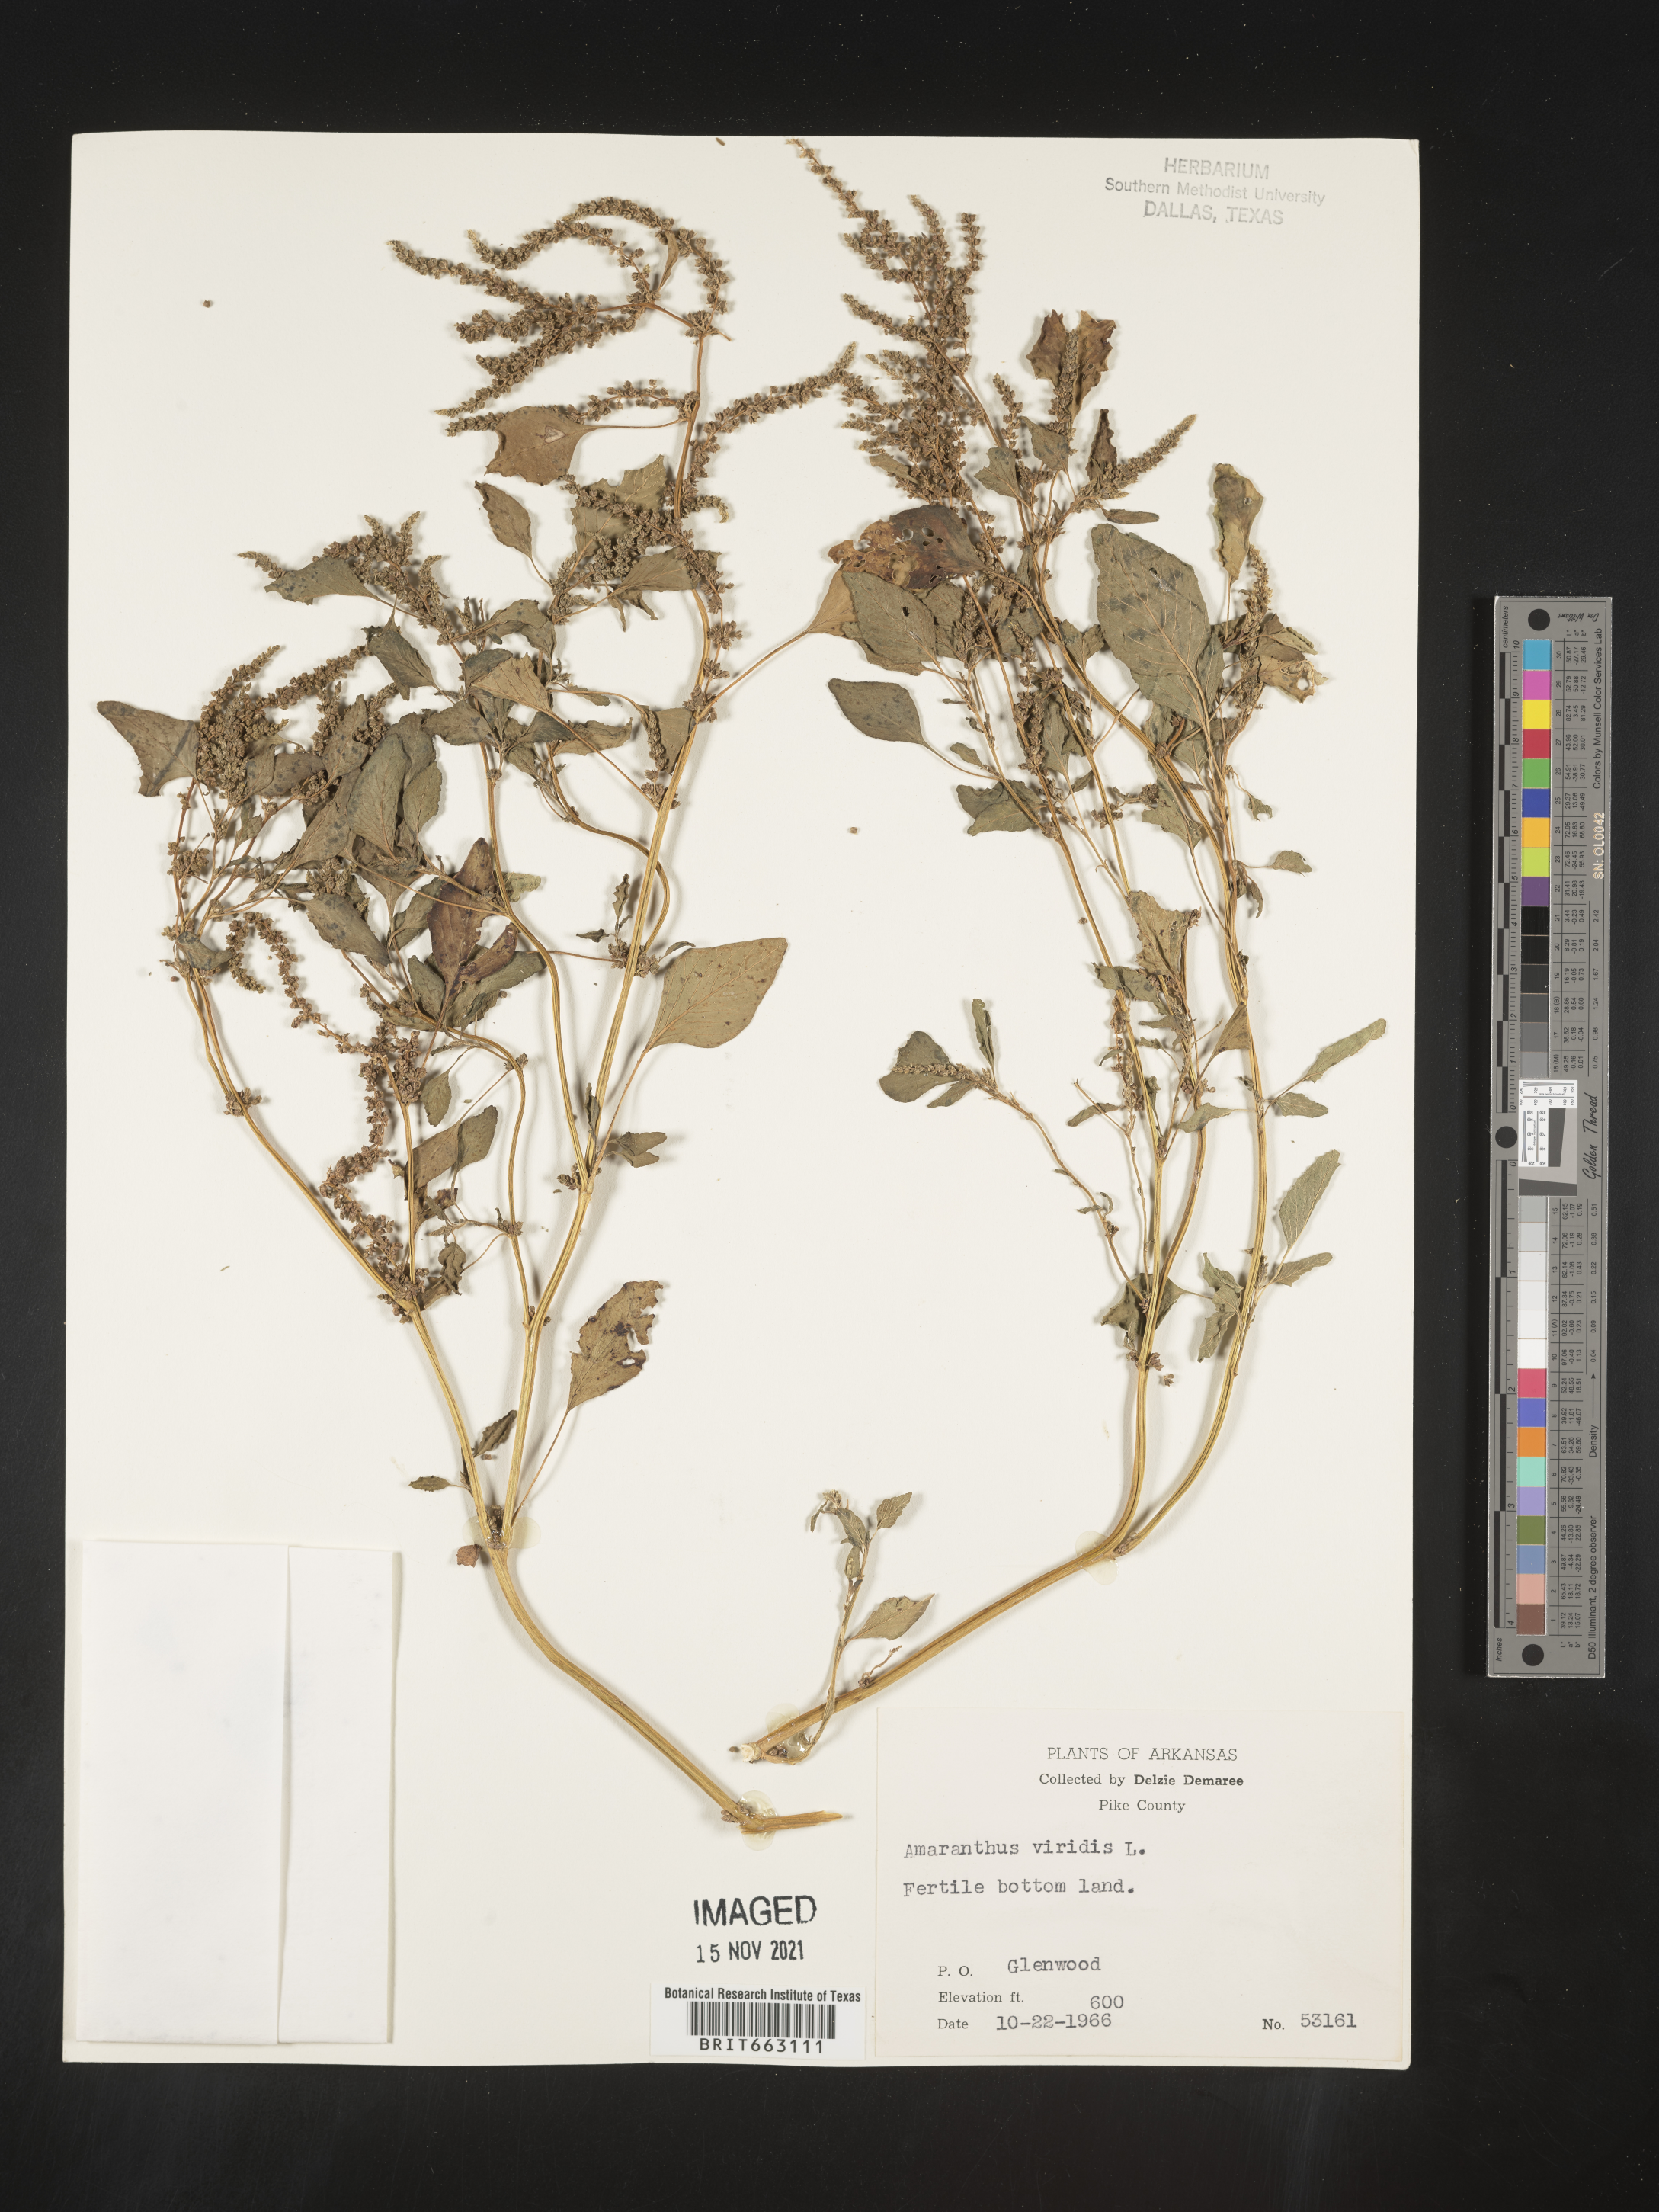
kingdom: Plantae
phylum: Tracheophyta
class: Magnoliopsida
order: Caryophyllales
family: Amaranthaceae
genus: Amaranthus
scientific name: Amaranthus viridis
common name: Slender amaranth
